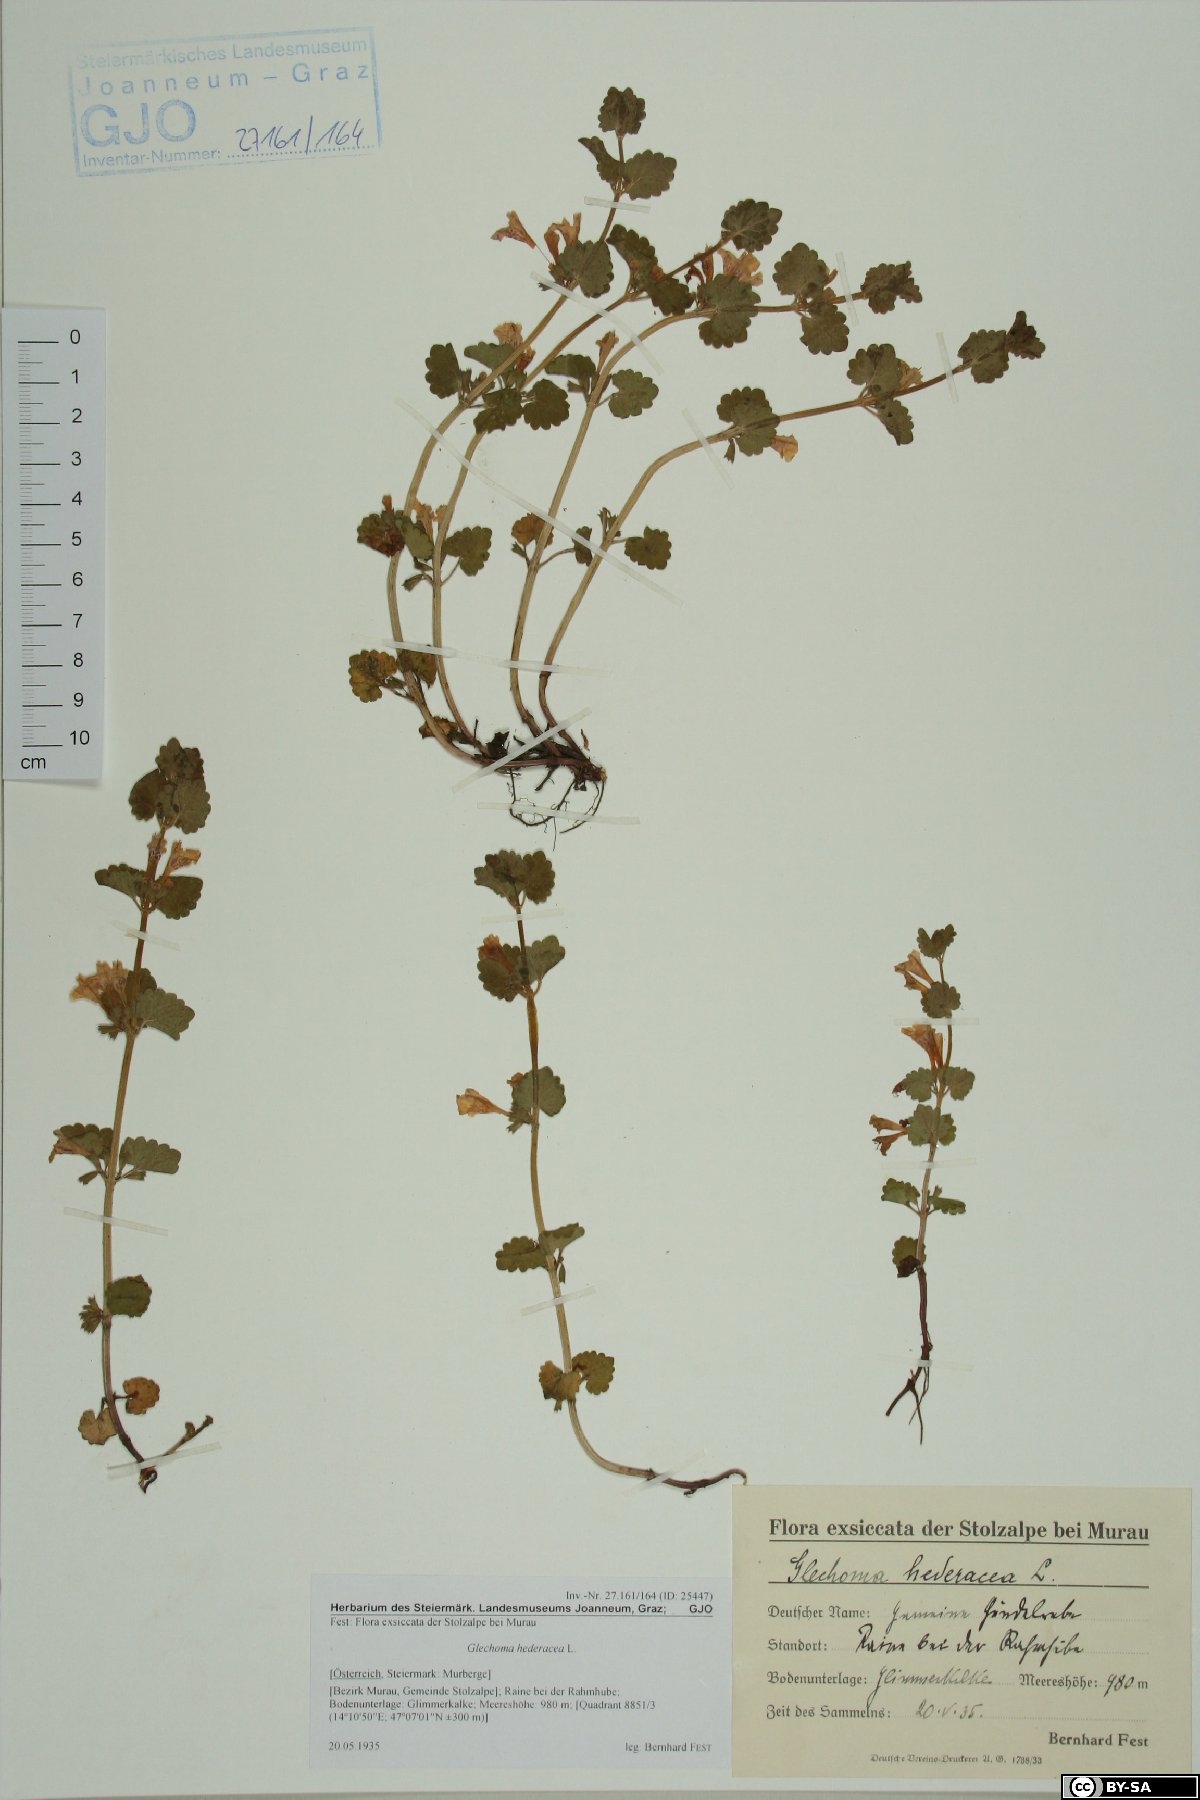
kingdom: Plantae
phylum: Tracheophyta
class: Magnoliopsida
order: Lamiales
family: Lamiaceae
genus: Glechoma
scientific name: Glechoma hederacea
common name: Ground ivy
